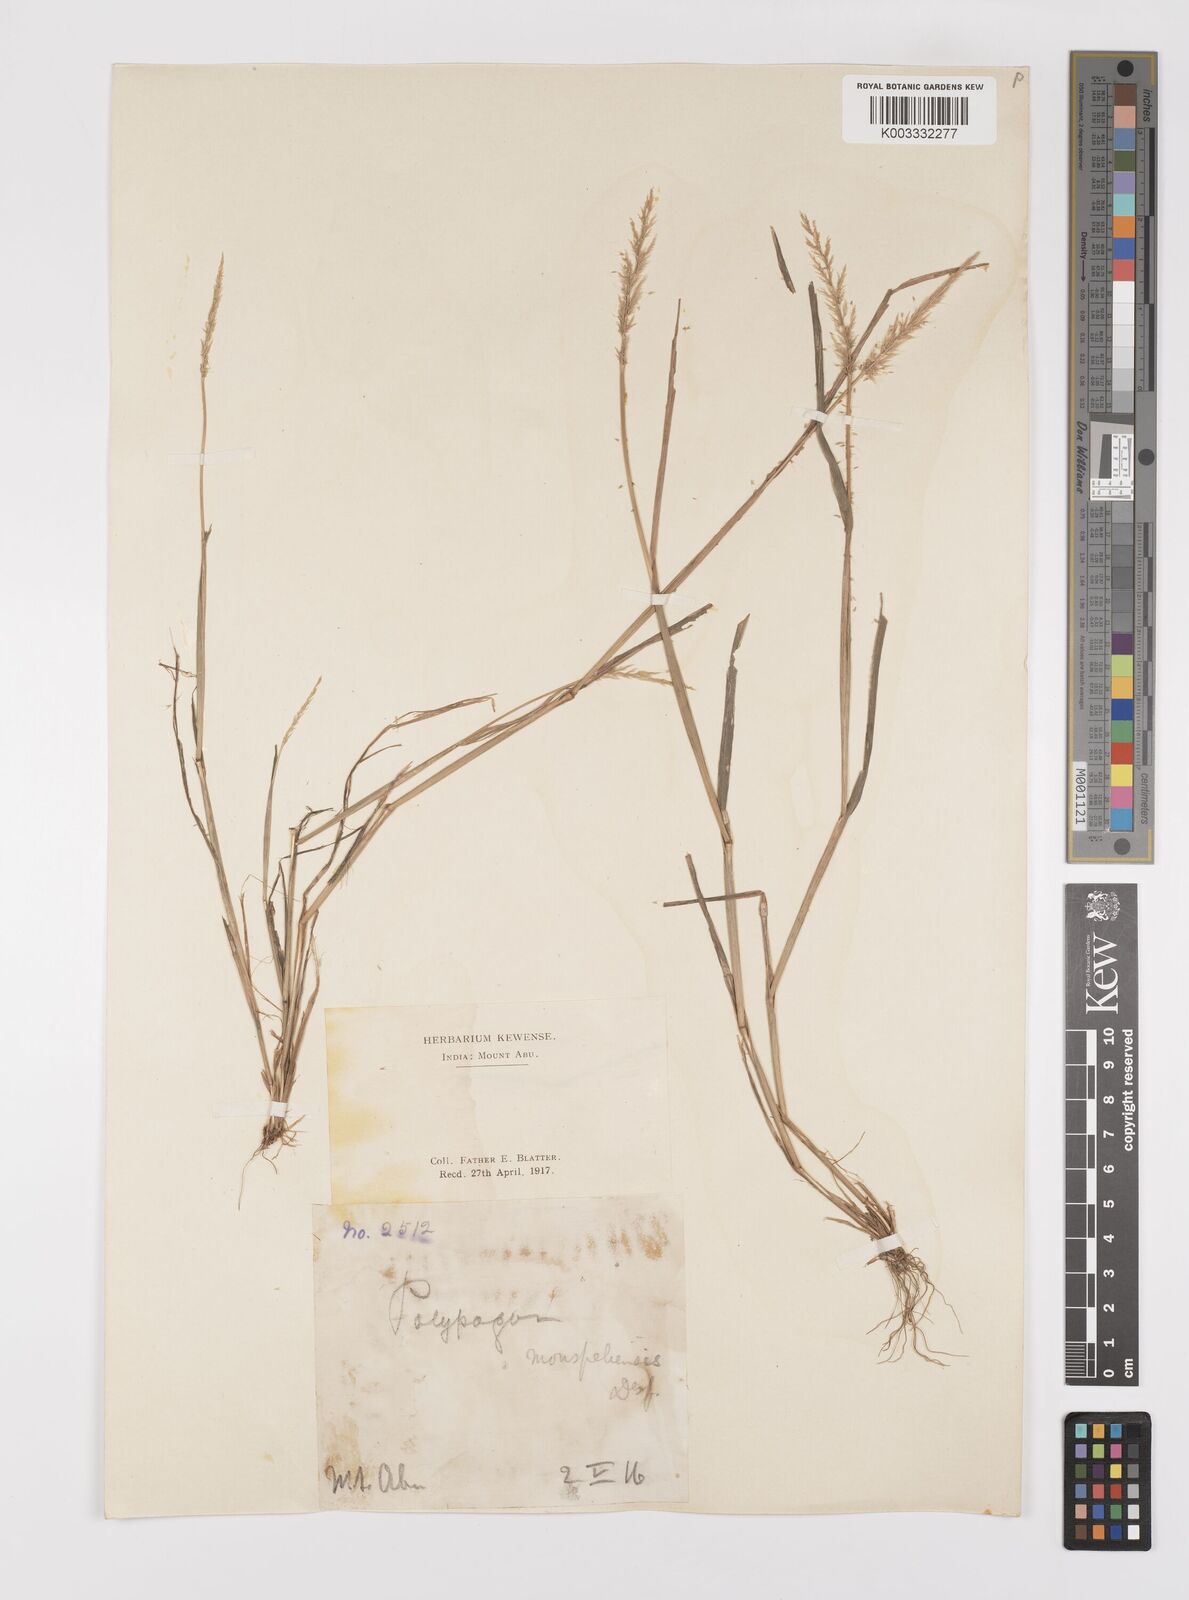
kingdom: Plantae
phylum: Tracheophyta
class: Liliopsida
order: Poales
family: Poaceae
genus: Polypogon
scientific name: Polypogon monspeliensis
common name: Annual rabbitsfoot grass
